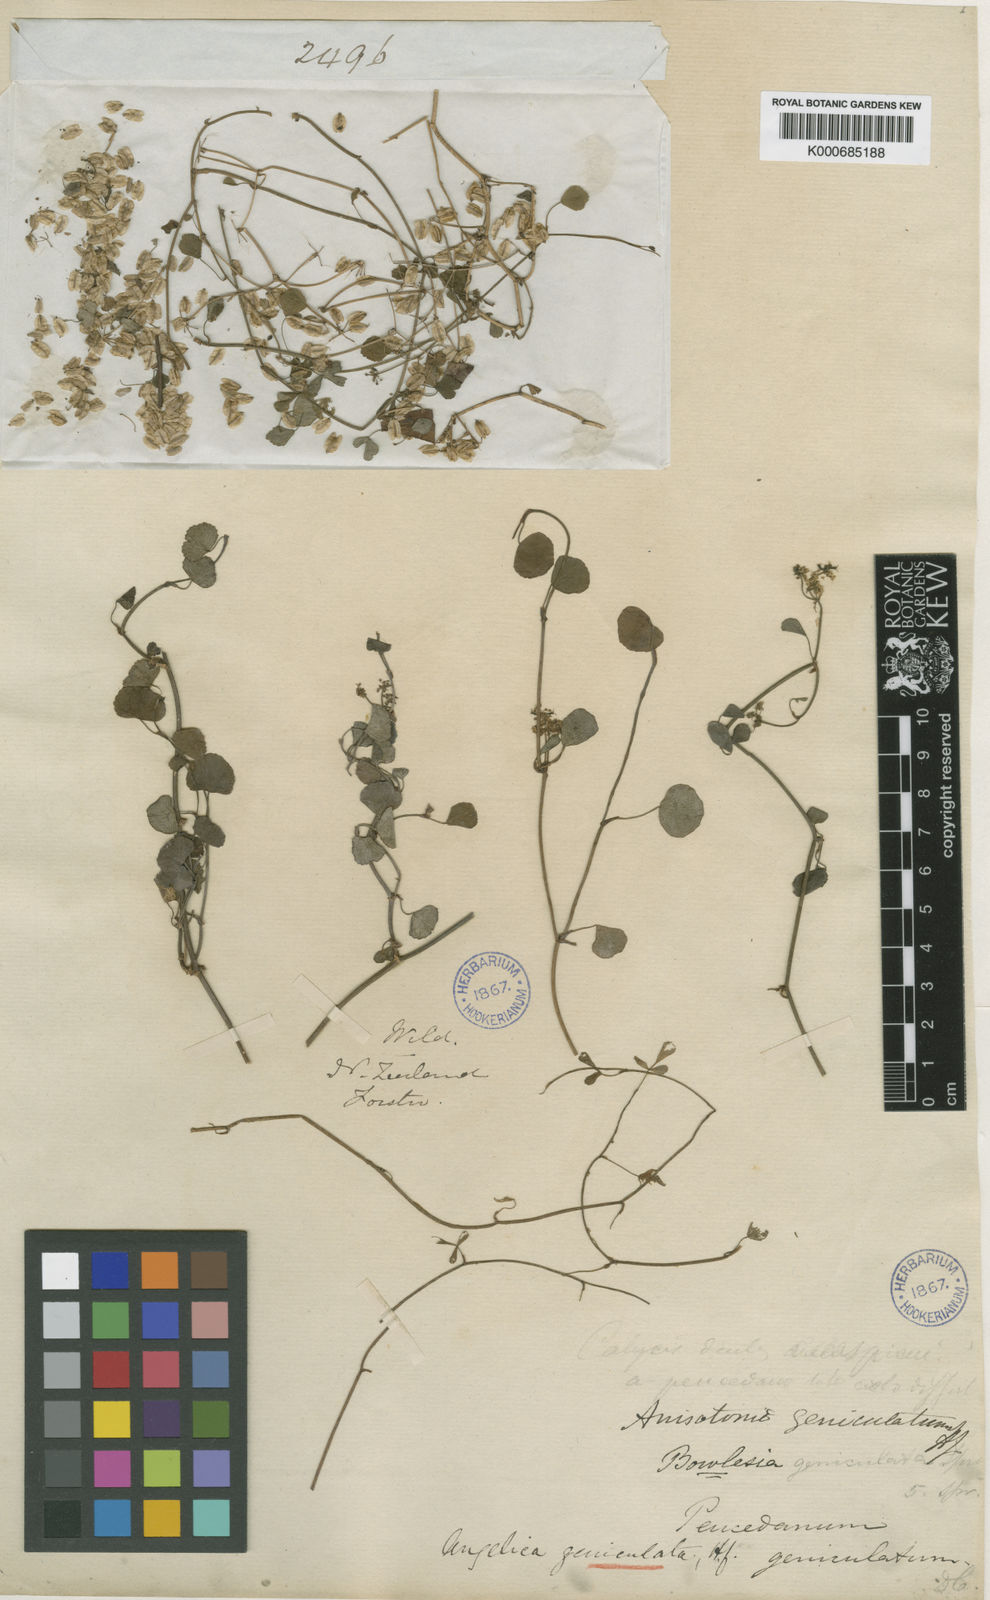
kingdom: Plantae
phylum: Tracheophyta
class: Magnoliopsida
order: Apiales
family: Apiaceae
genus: Scandia
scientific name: Scandia geniculata
